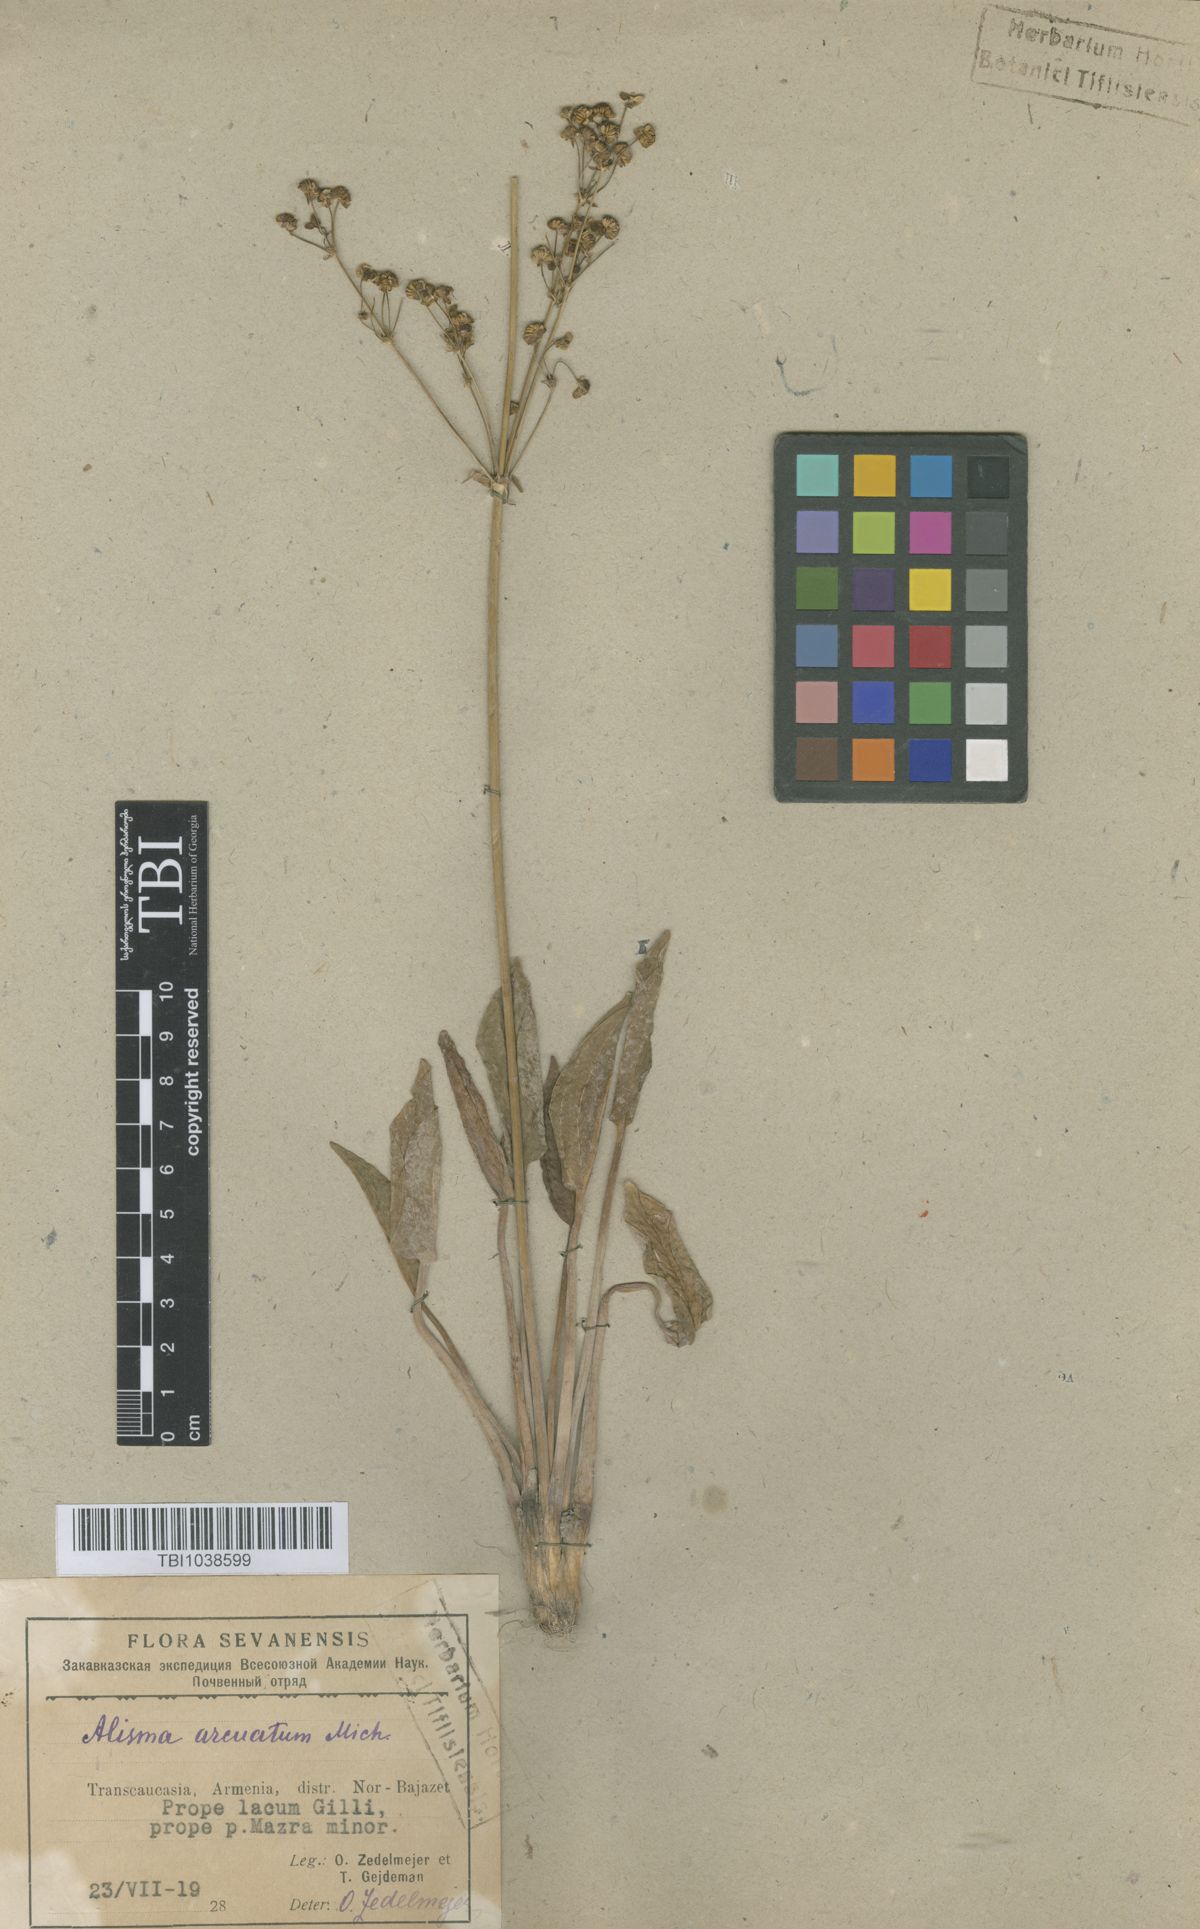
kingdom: Plantae
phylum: Tracheophyta
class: Liliopsida
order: Alismatales
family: Alismataceae
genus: Alisma
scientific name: Alisma gramineum
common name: Ribbon-leaved water-plantain
